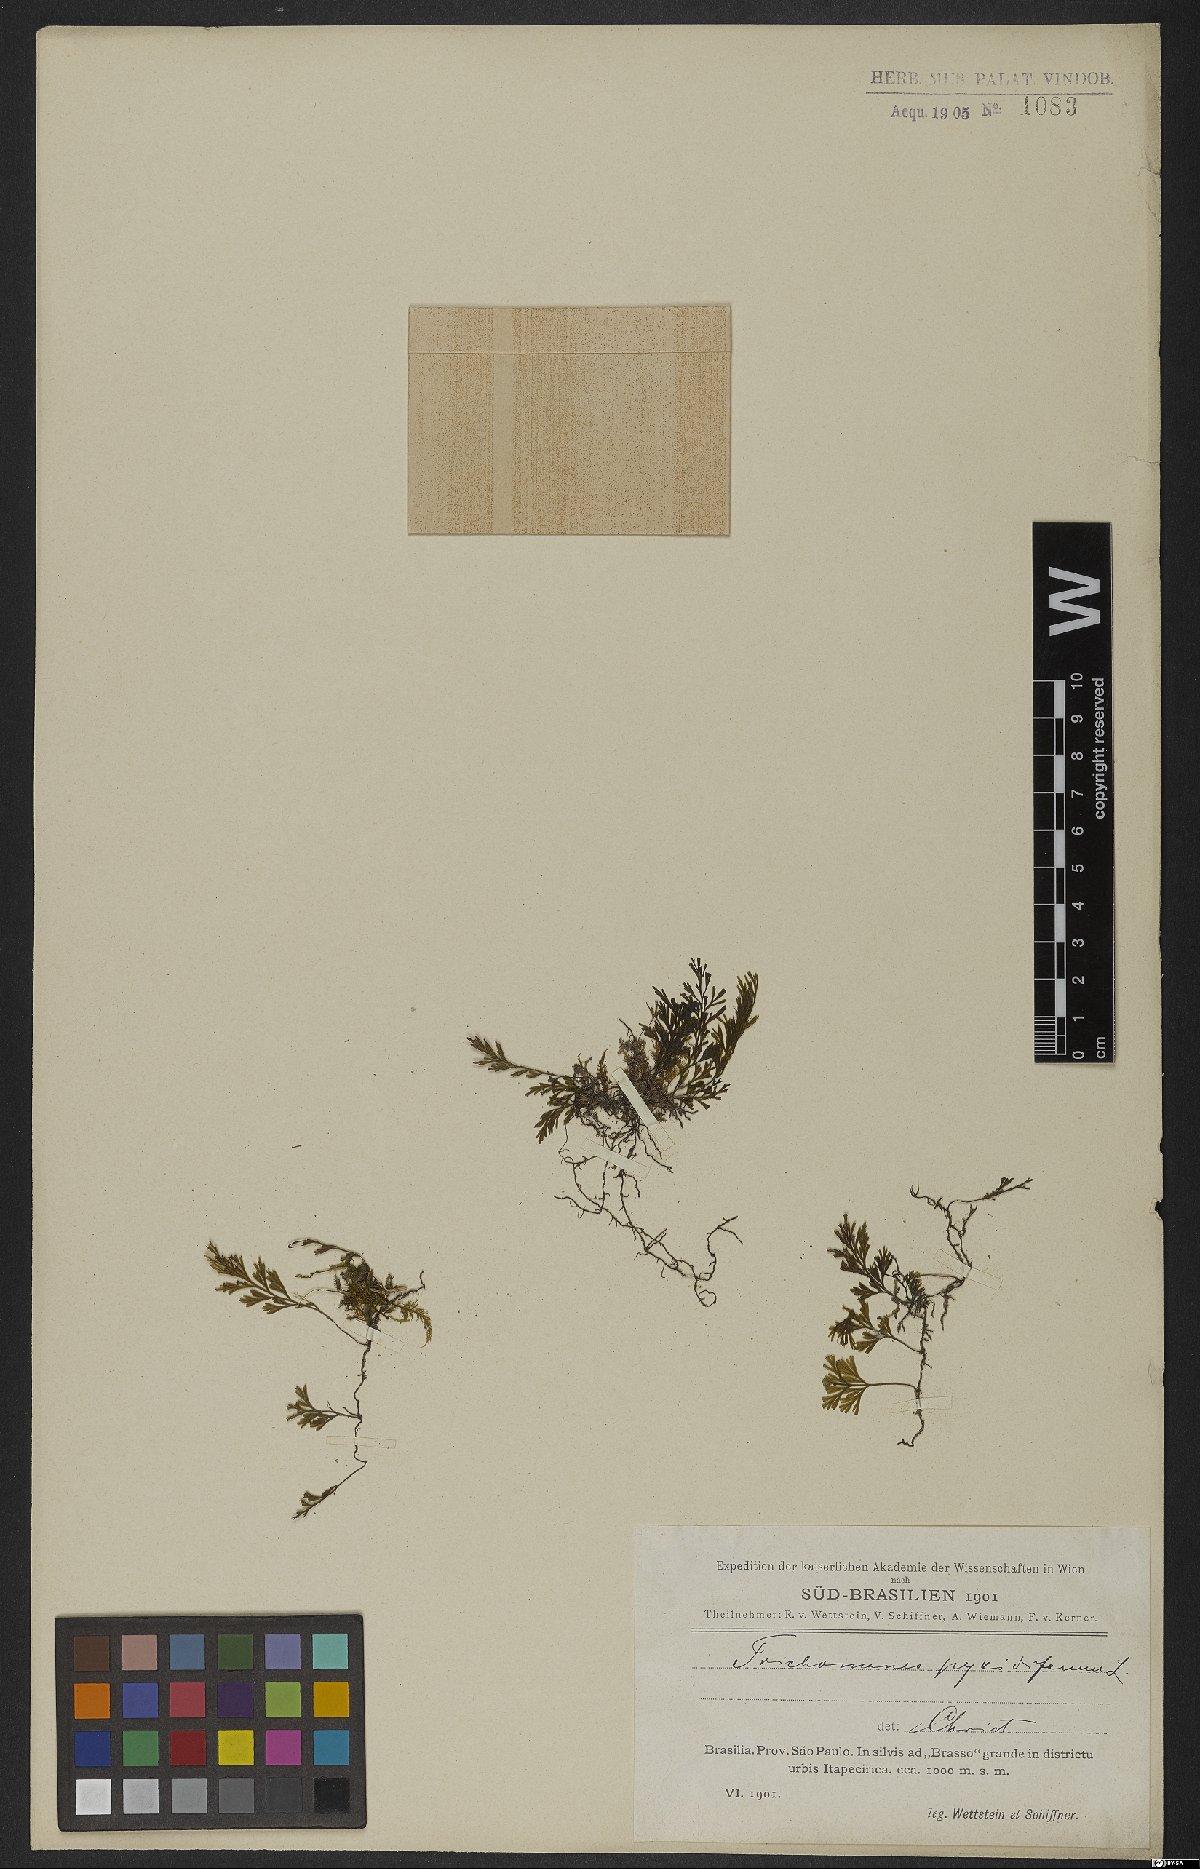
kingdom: Plantae
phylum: Tracheophyta
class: Polypodiopsida
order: Hymenophyllales
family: Hymenophyllaceae
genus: Polyphlebium
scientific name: Polyphlebium pyxidiferum
